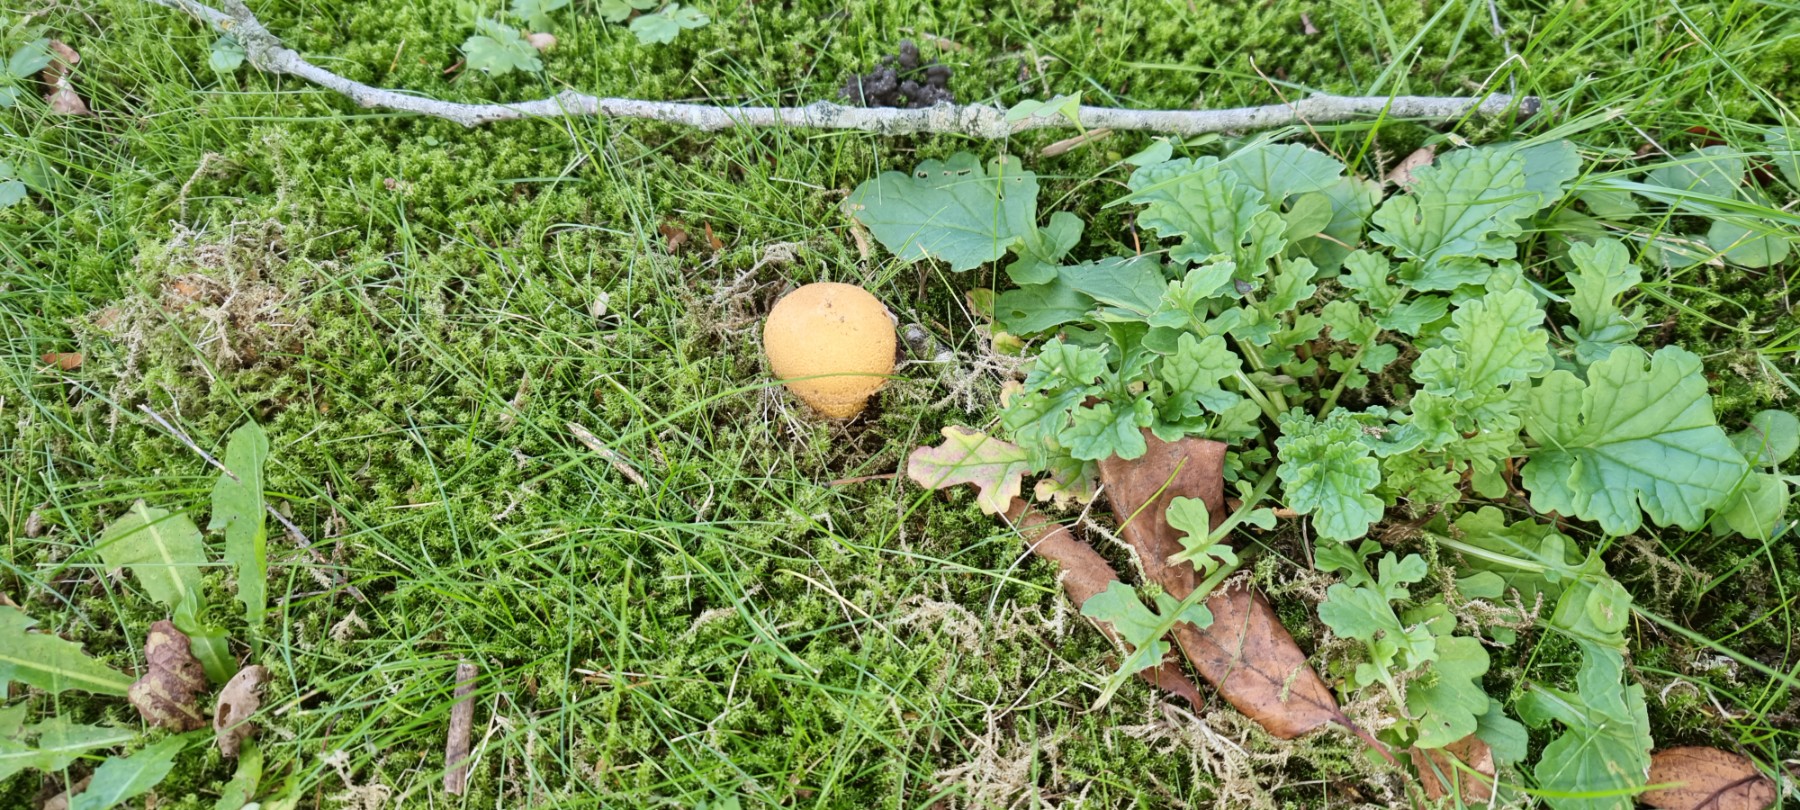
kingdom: Fungi
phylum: Basidiomycota
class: Agaricomycetes
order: Agaricales
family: Strophariaceae
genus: Pholiota
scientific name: Pholiota squarrosa
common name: krumskællet skælhat
